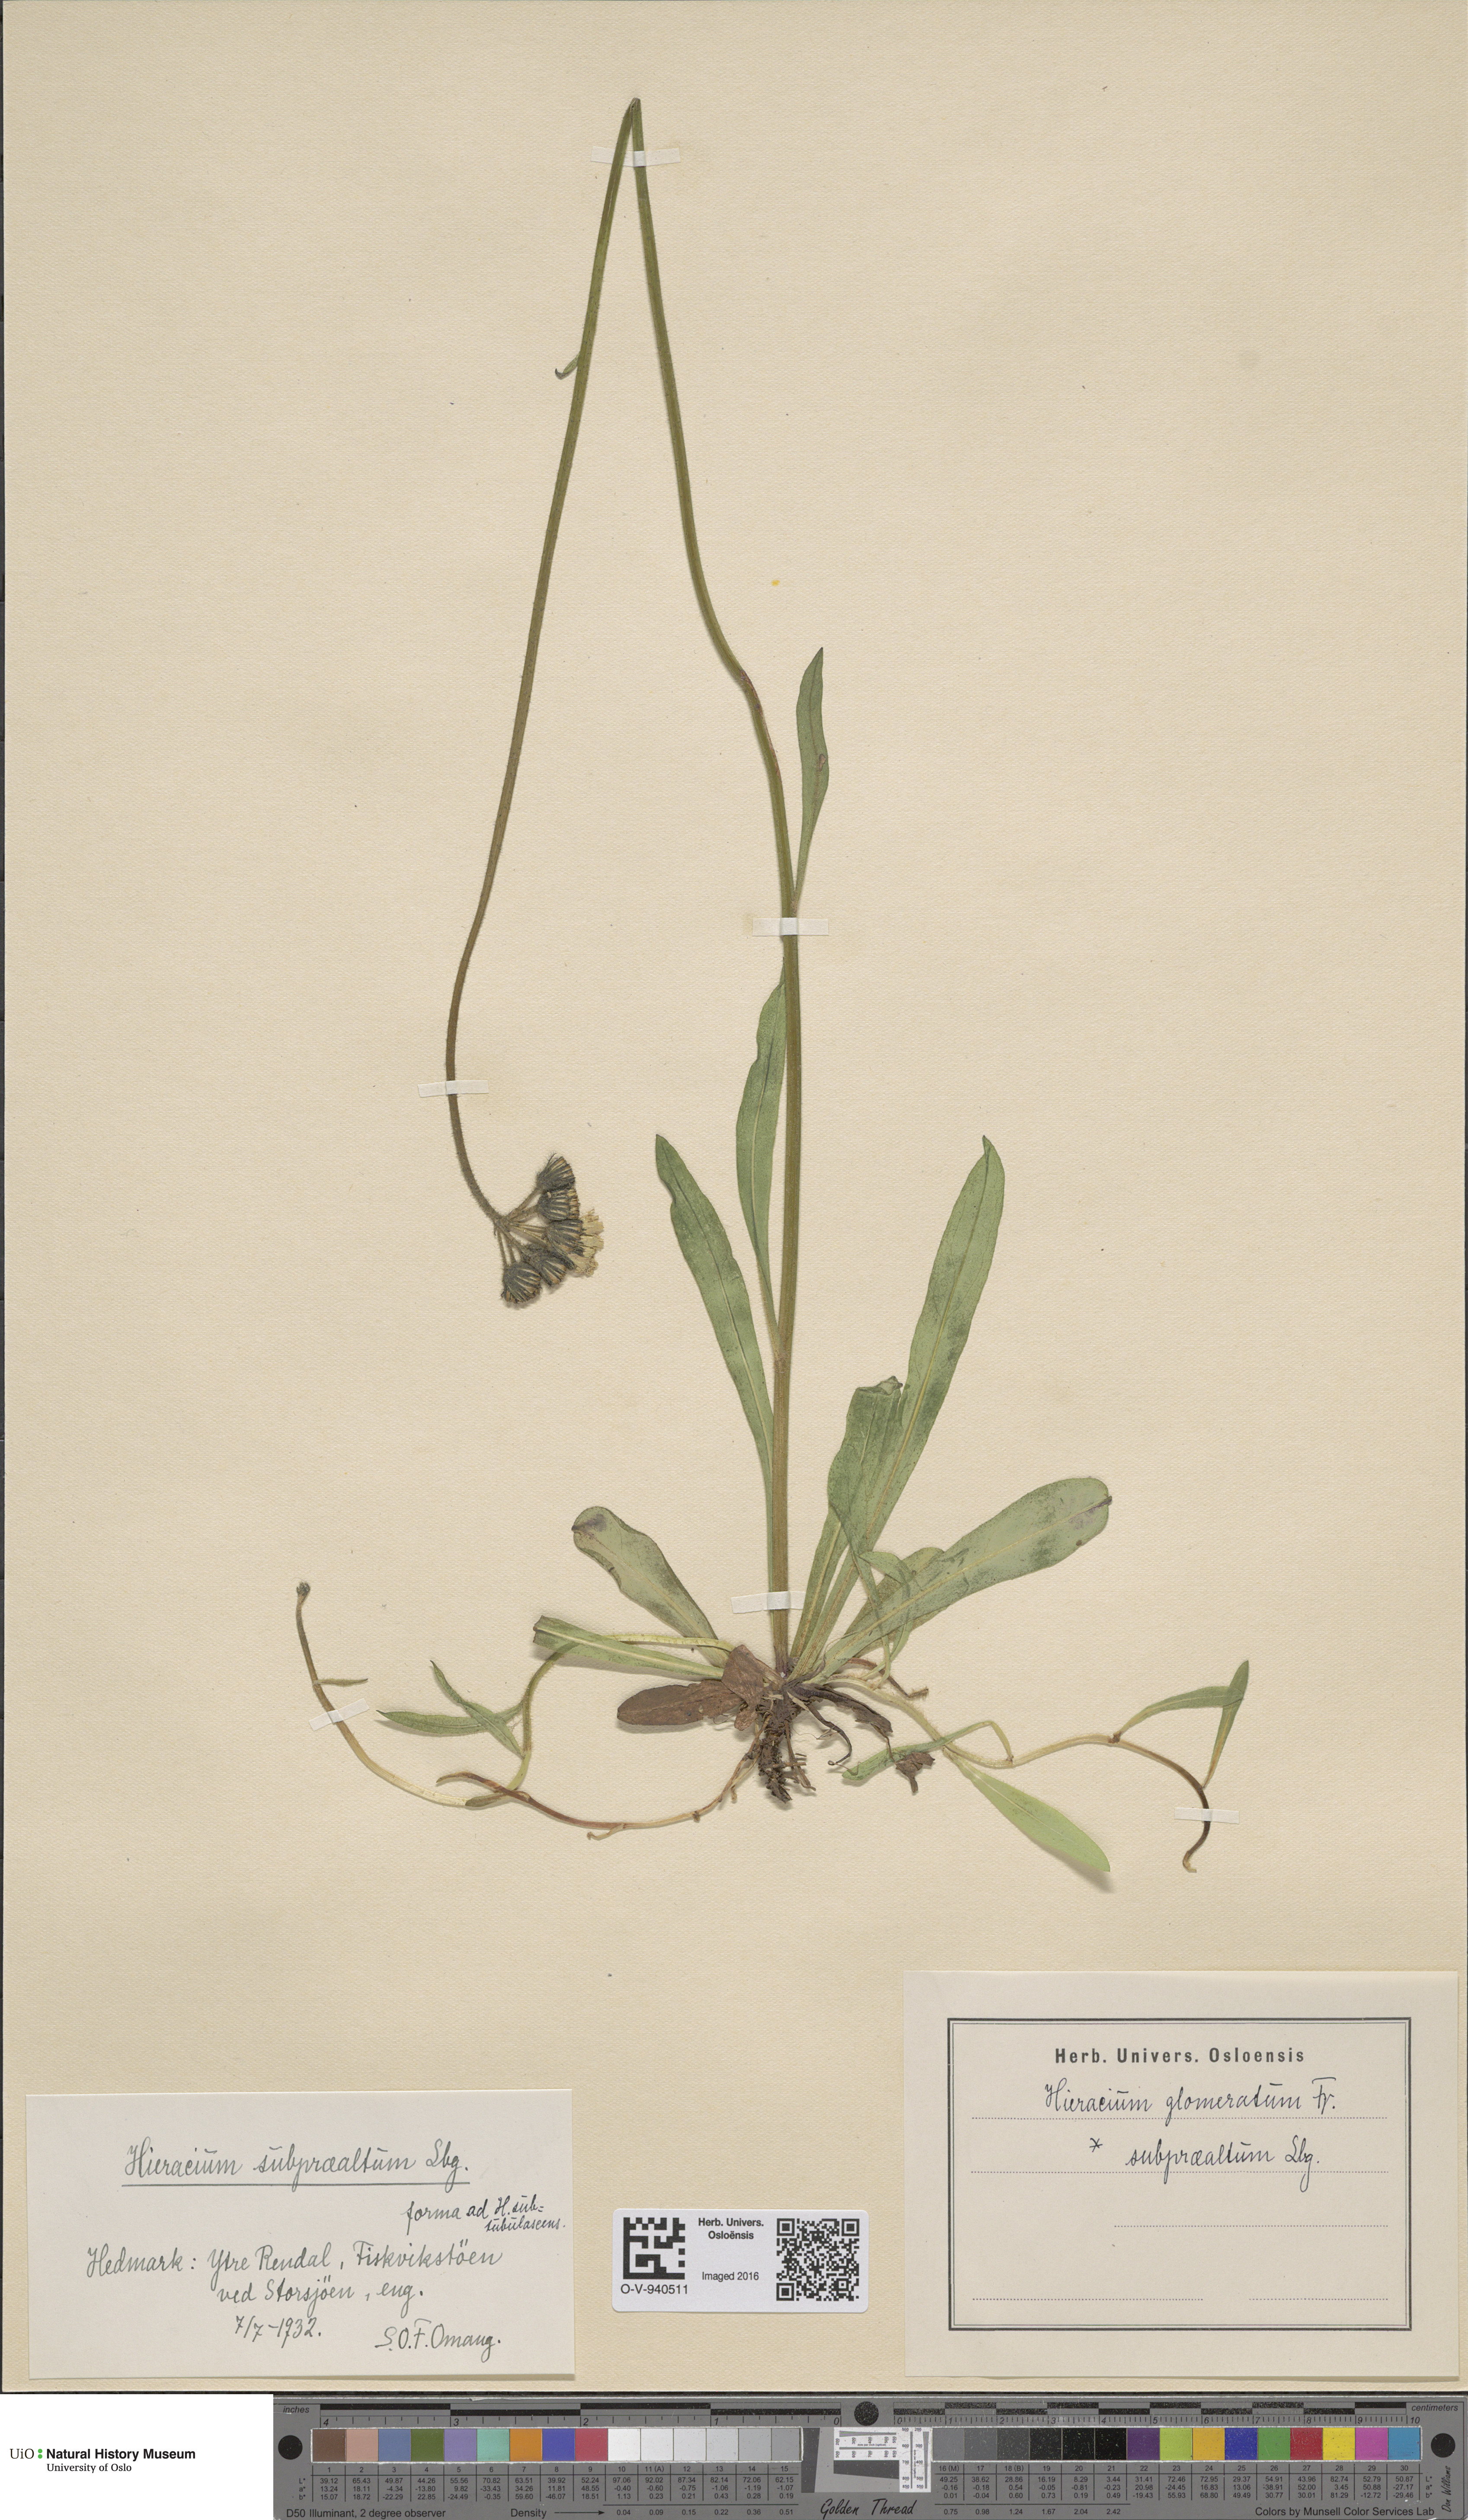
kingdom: Plantae
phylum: Tracheophyta
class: Magnoliopsida
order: Asterales
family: Asteraceae
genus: Pilosella
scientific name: Pilosella glomerata
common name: Queen devil hawkweed
